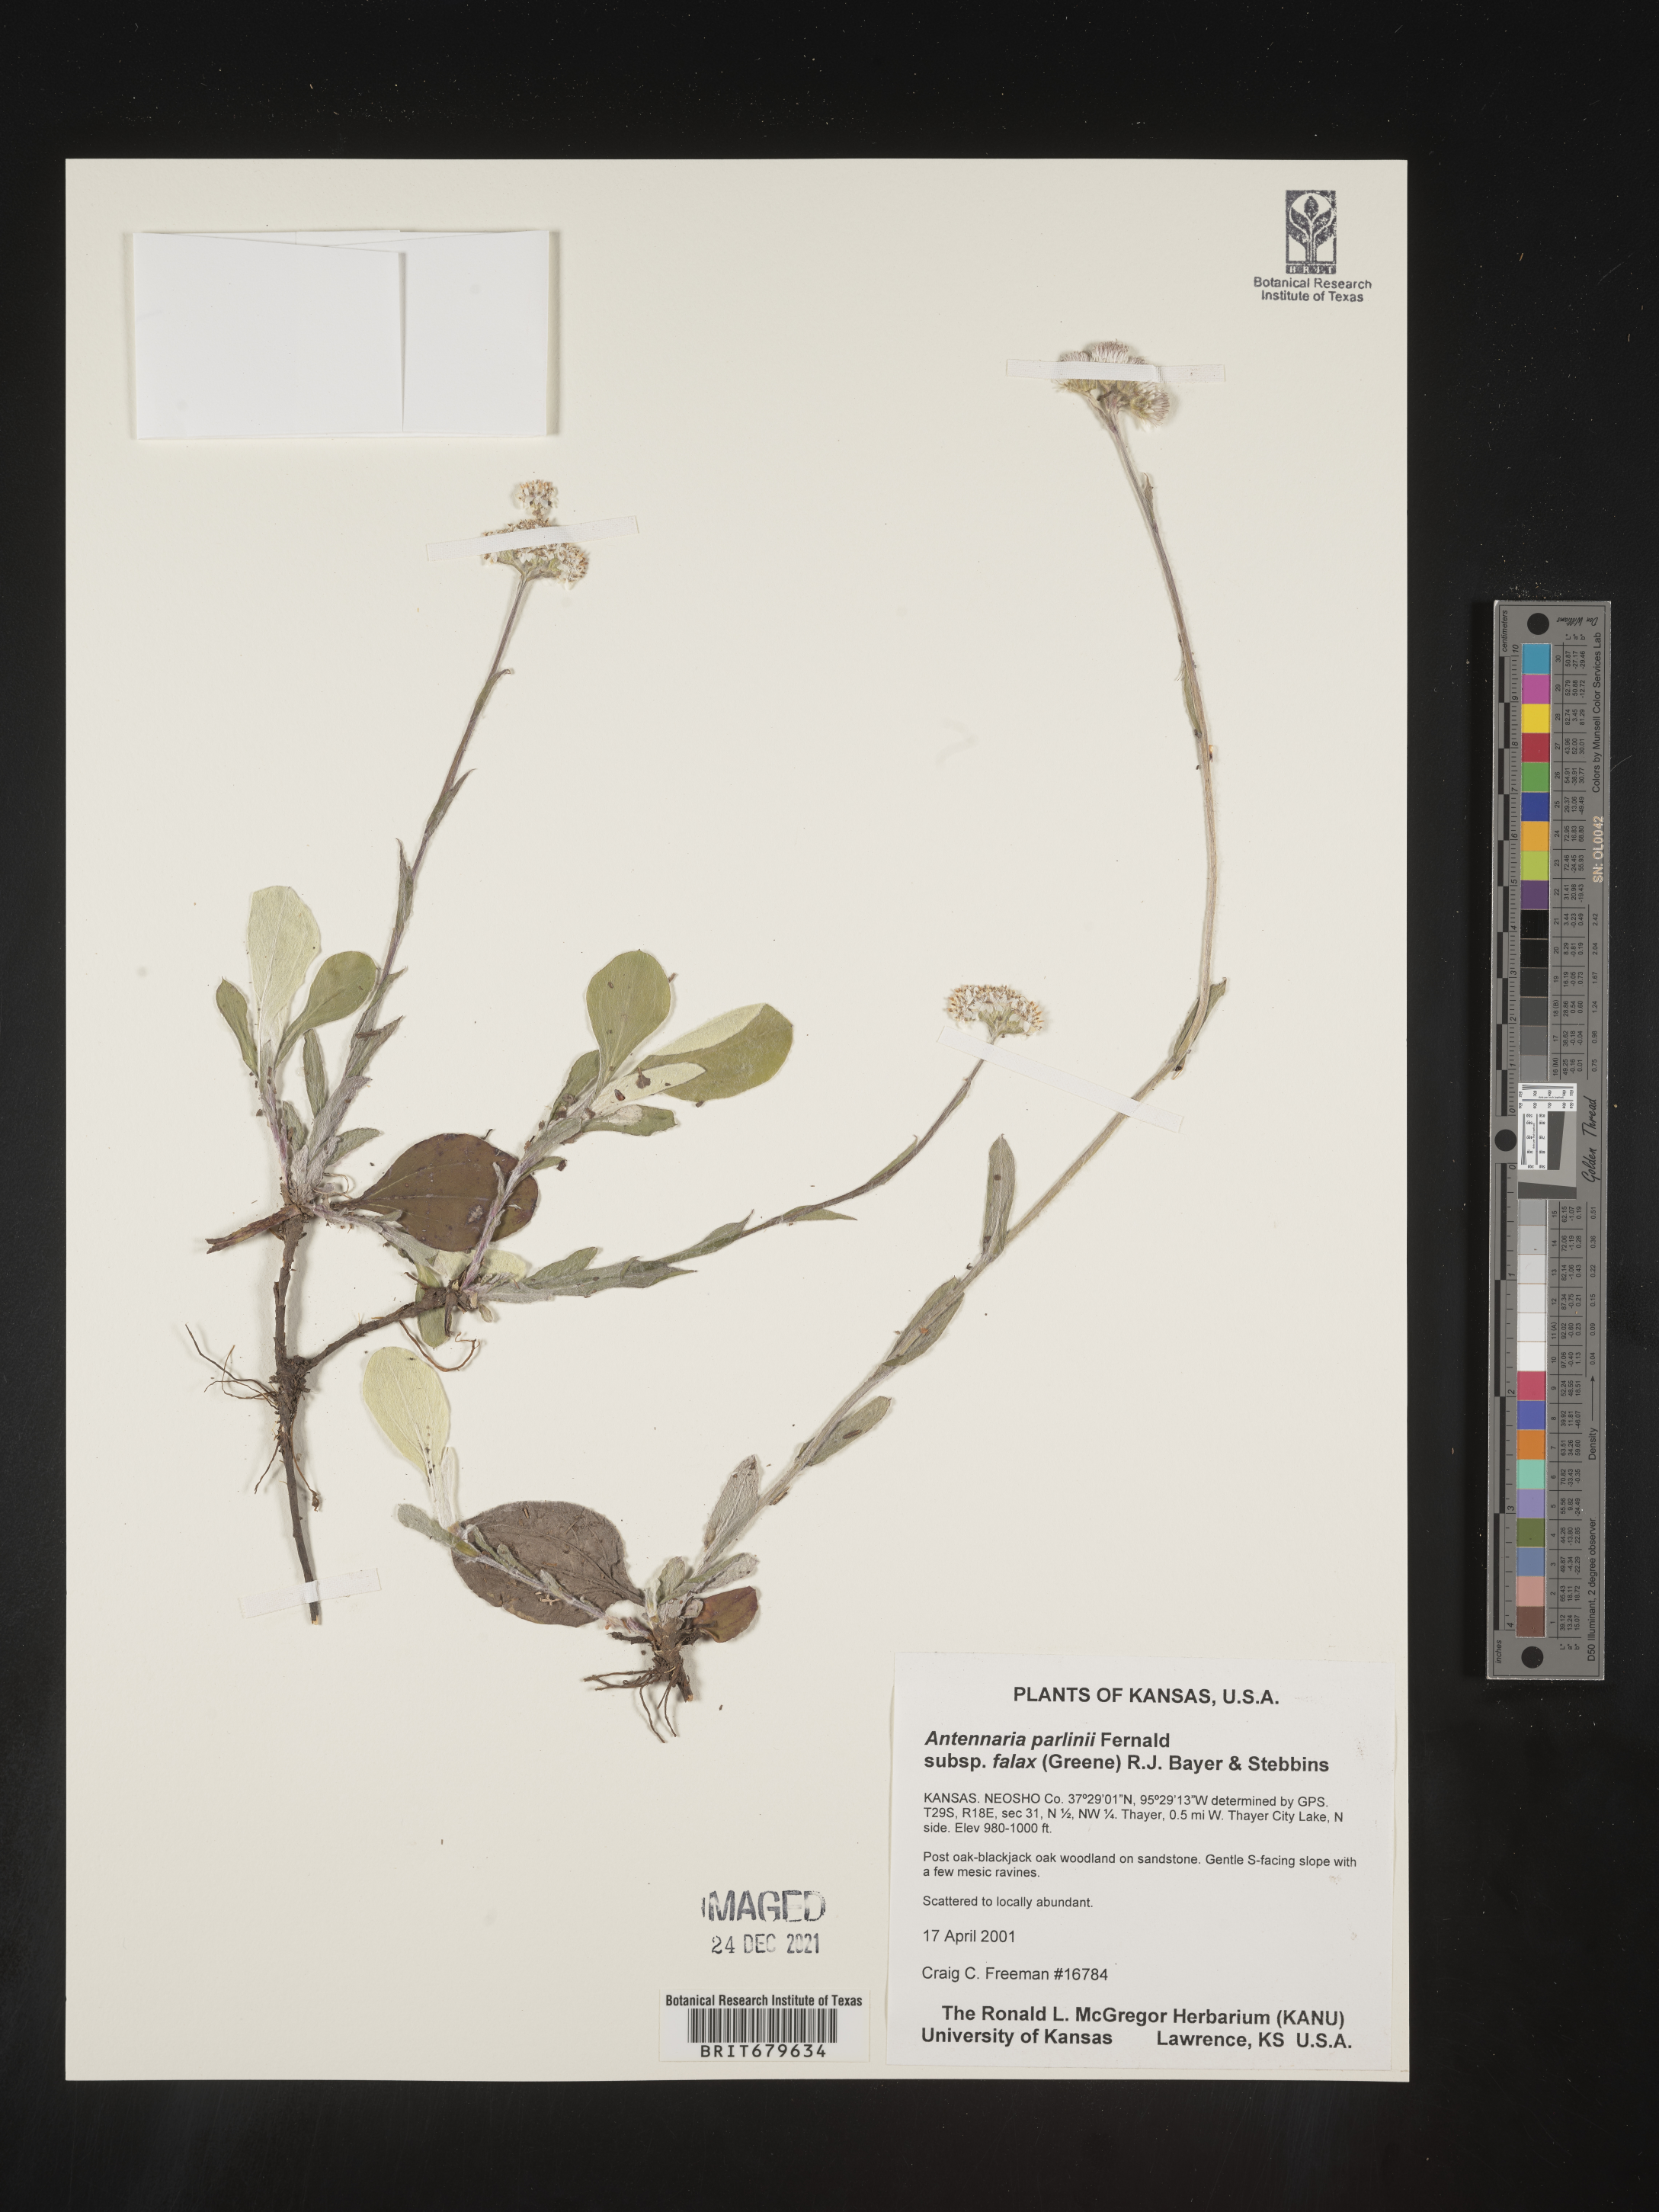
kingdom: Plantae
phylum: Tracheophyta
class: Magnoliopsida
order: Asterales
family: Asteraceae
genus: Antennaria
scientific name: Antennaria parlinii
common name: Parlin's pussytoes
